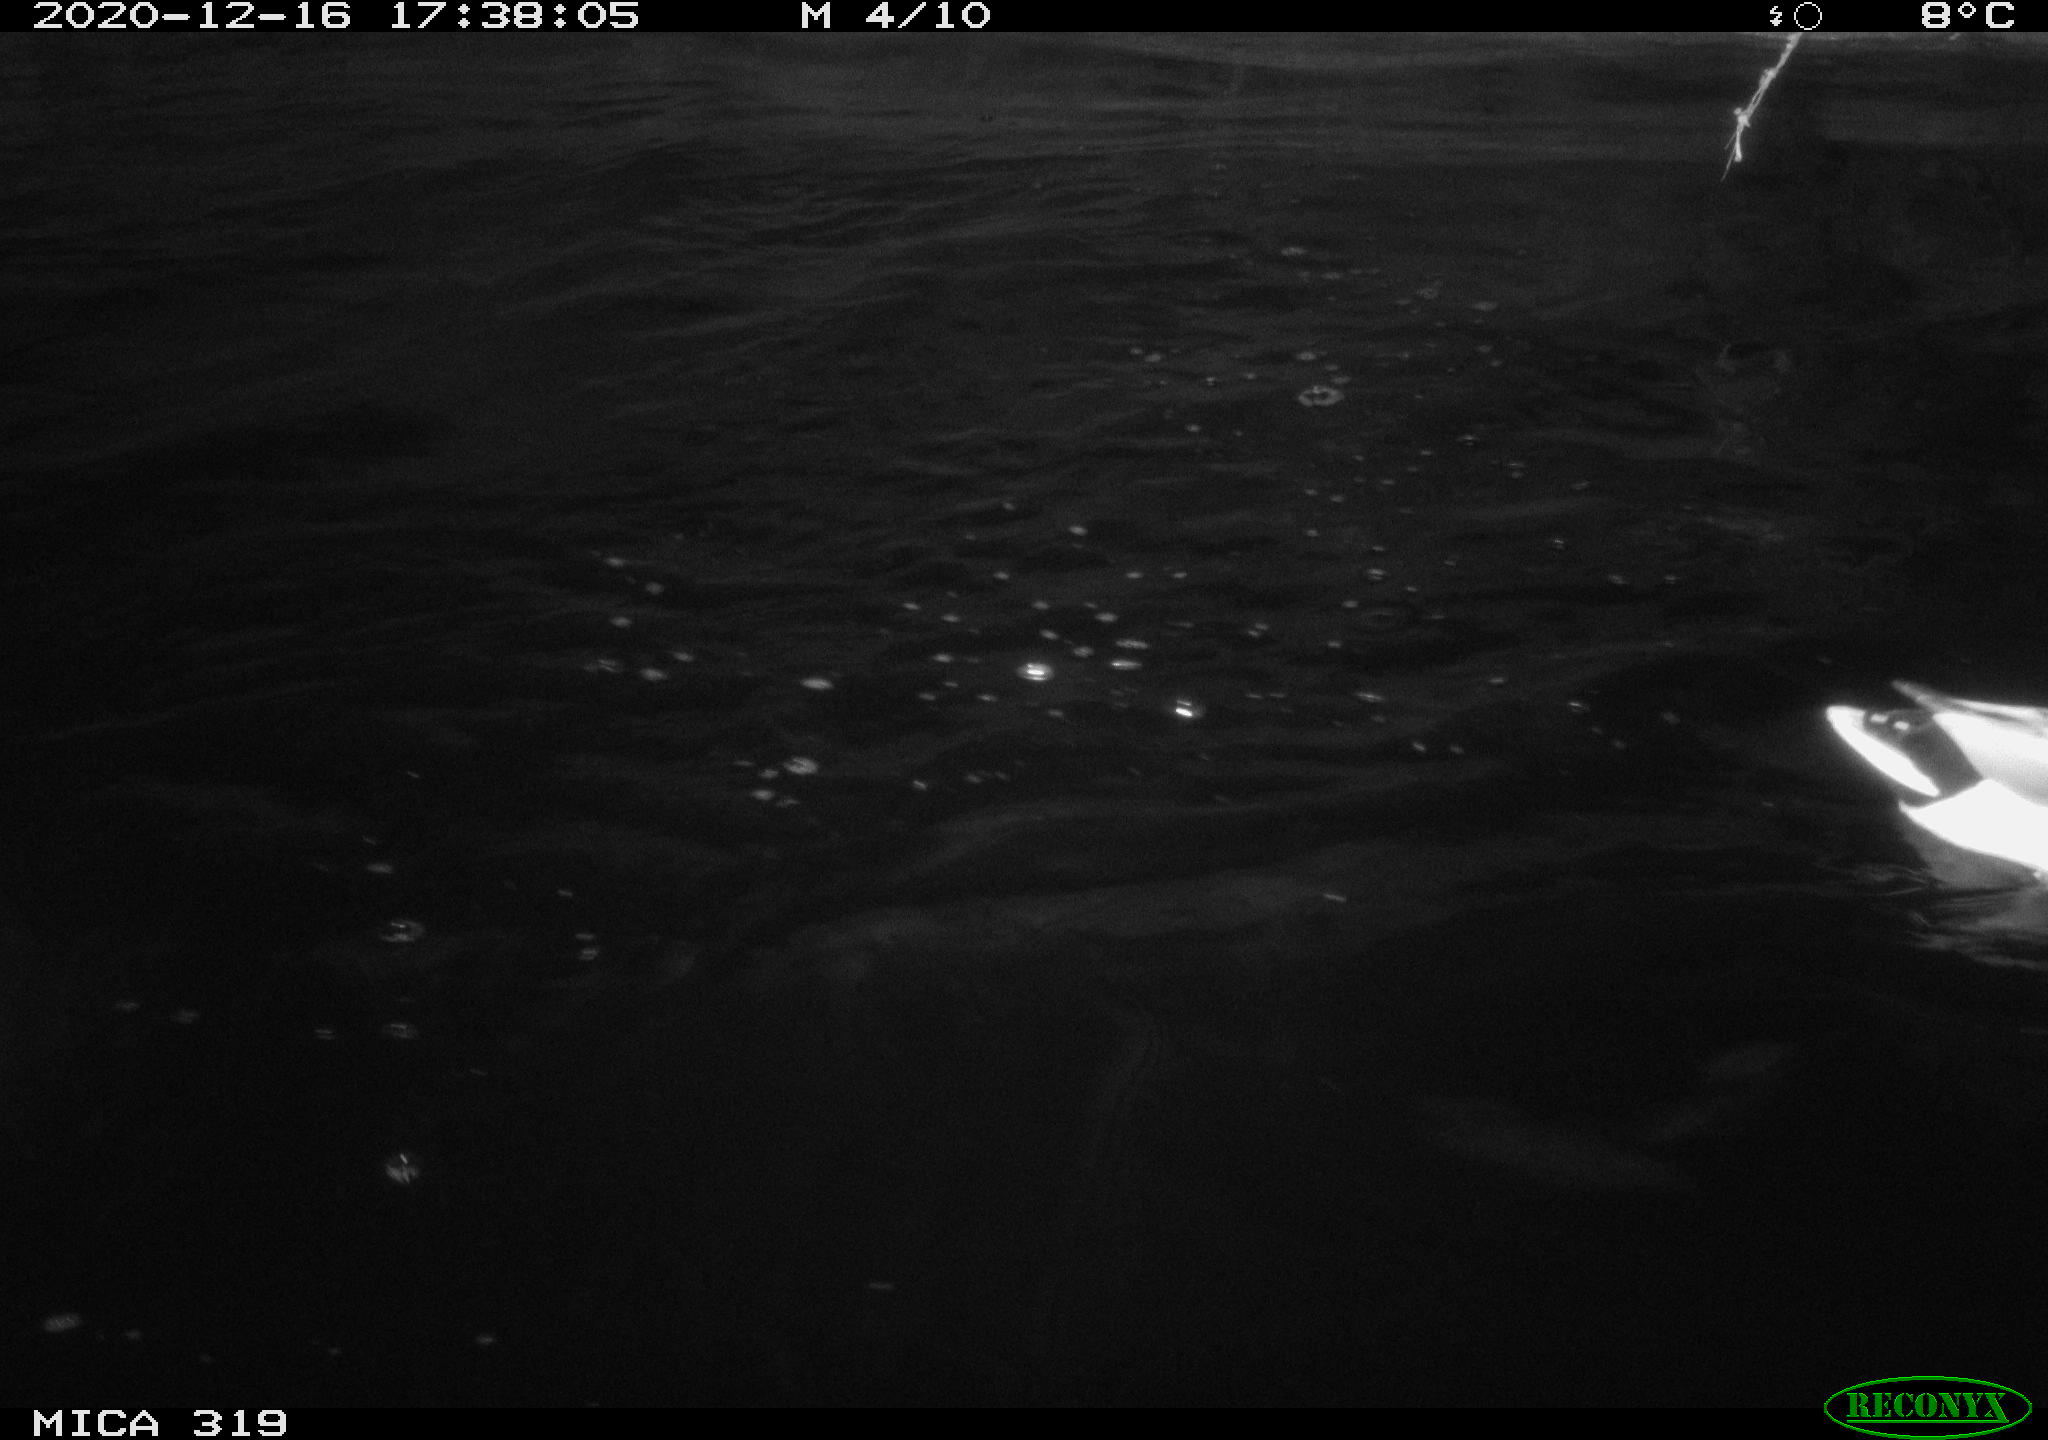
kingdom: Animalia
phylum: Chordata
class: Aves
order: Anseriformes
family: Anatidae
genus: Anas
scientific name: Anas platyrhynchos
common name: Mallard
